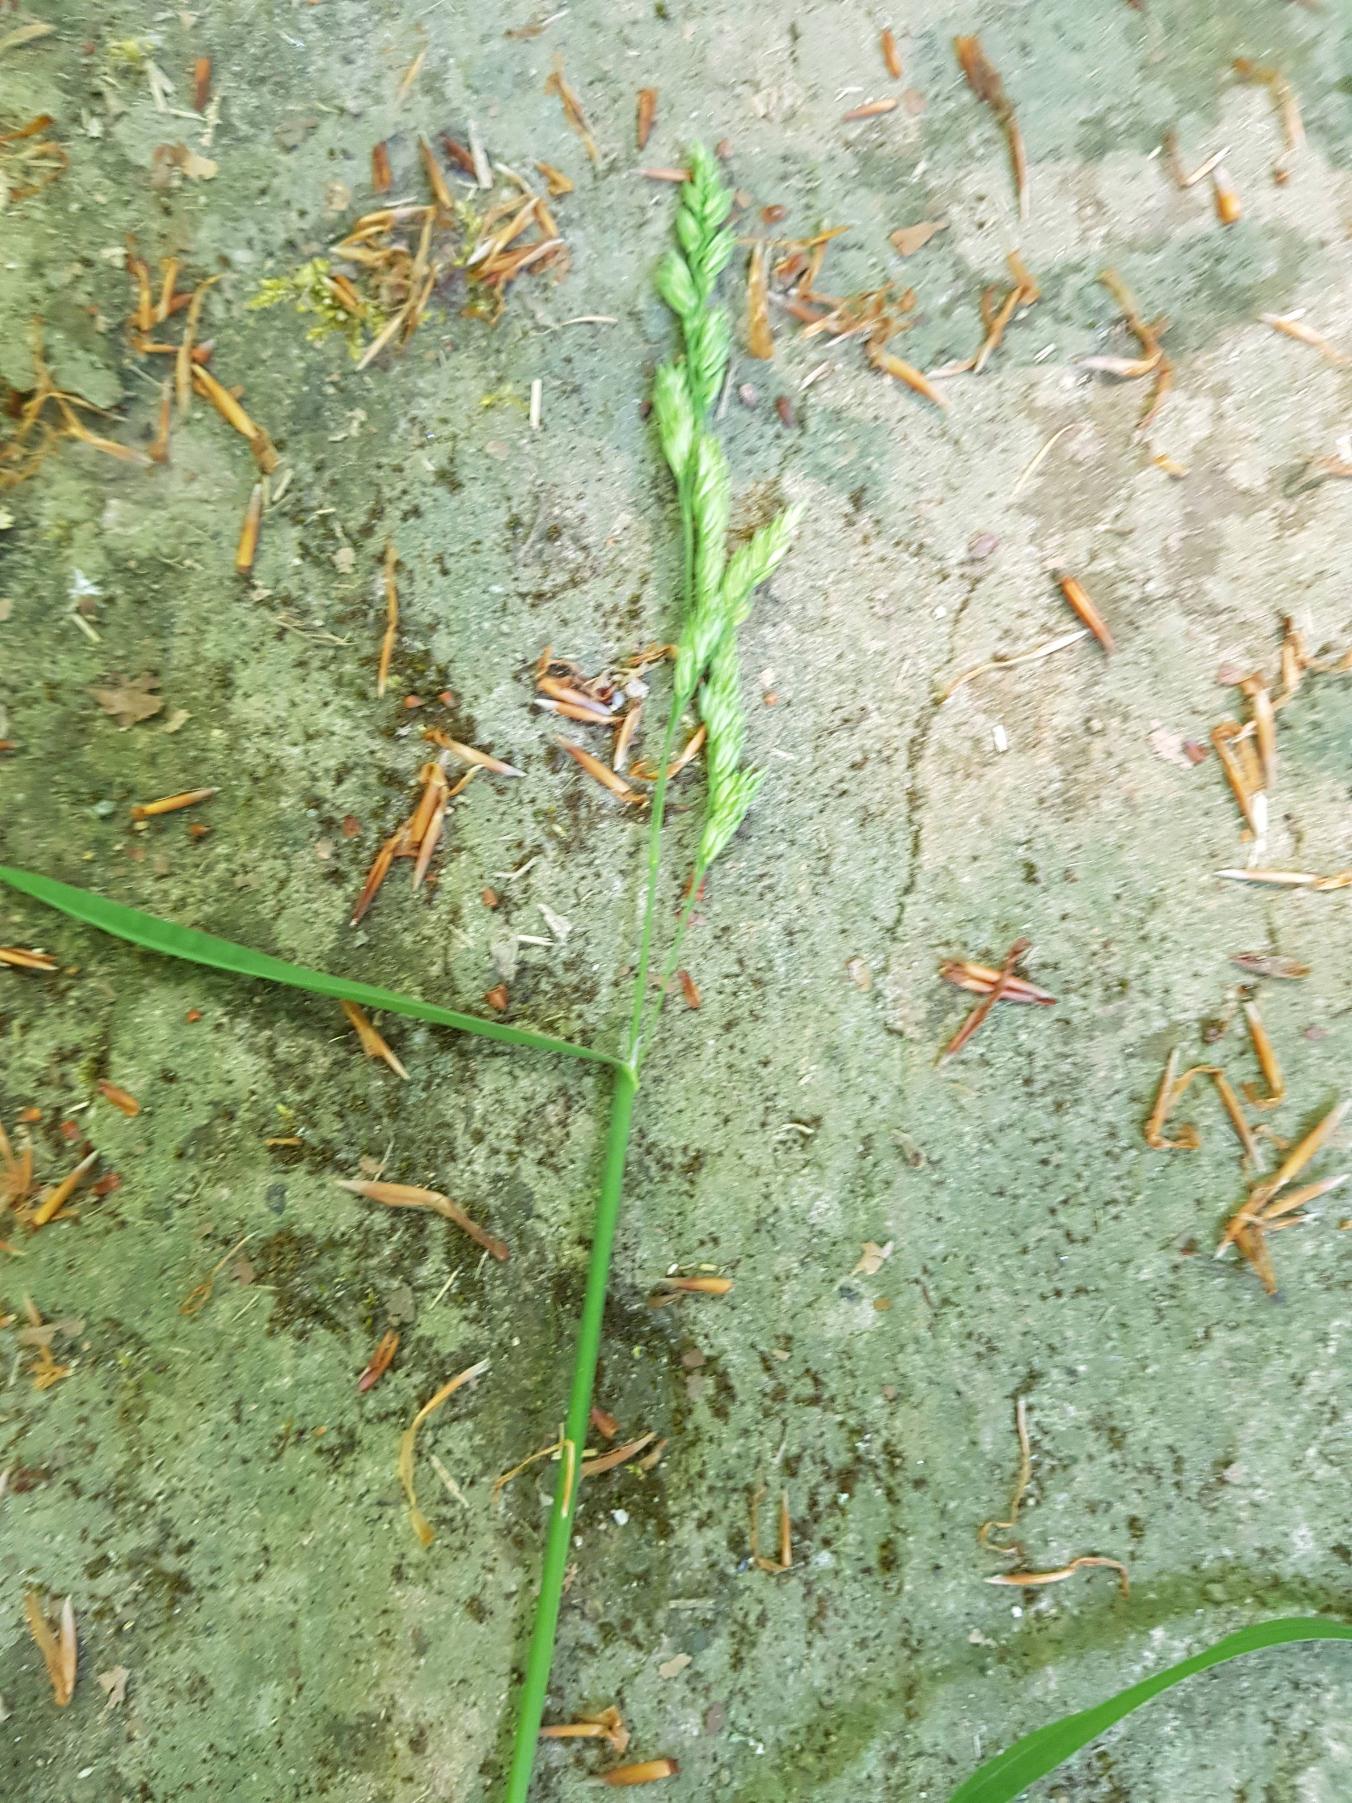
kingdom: Plantae
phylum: Tracheophyta
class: Liliopsida
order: Poales
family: Poaceae
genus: Dactylis
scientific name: Dactylis glomerata
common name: Almindelig hundegræs
